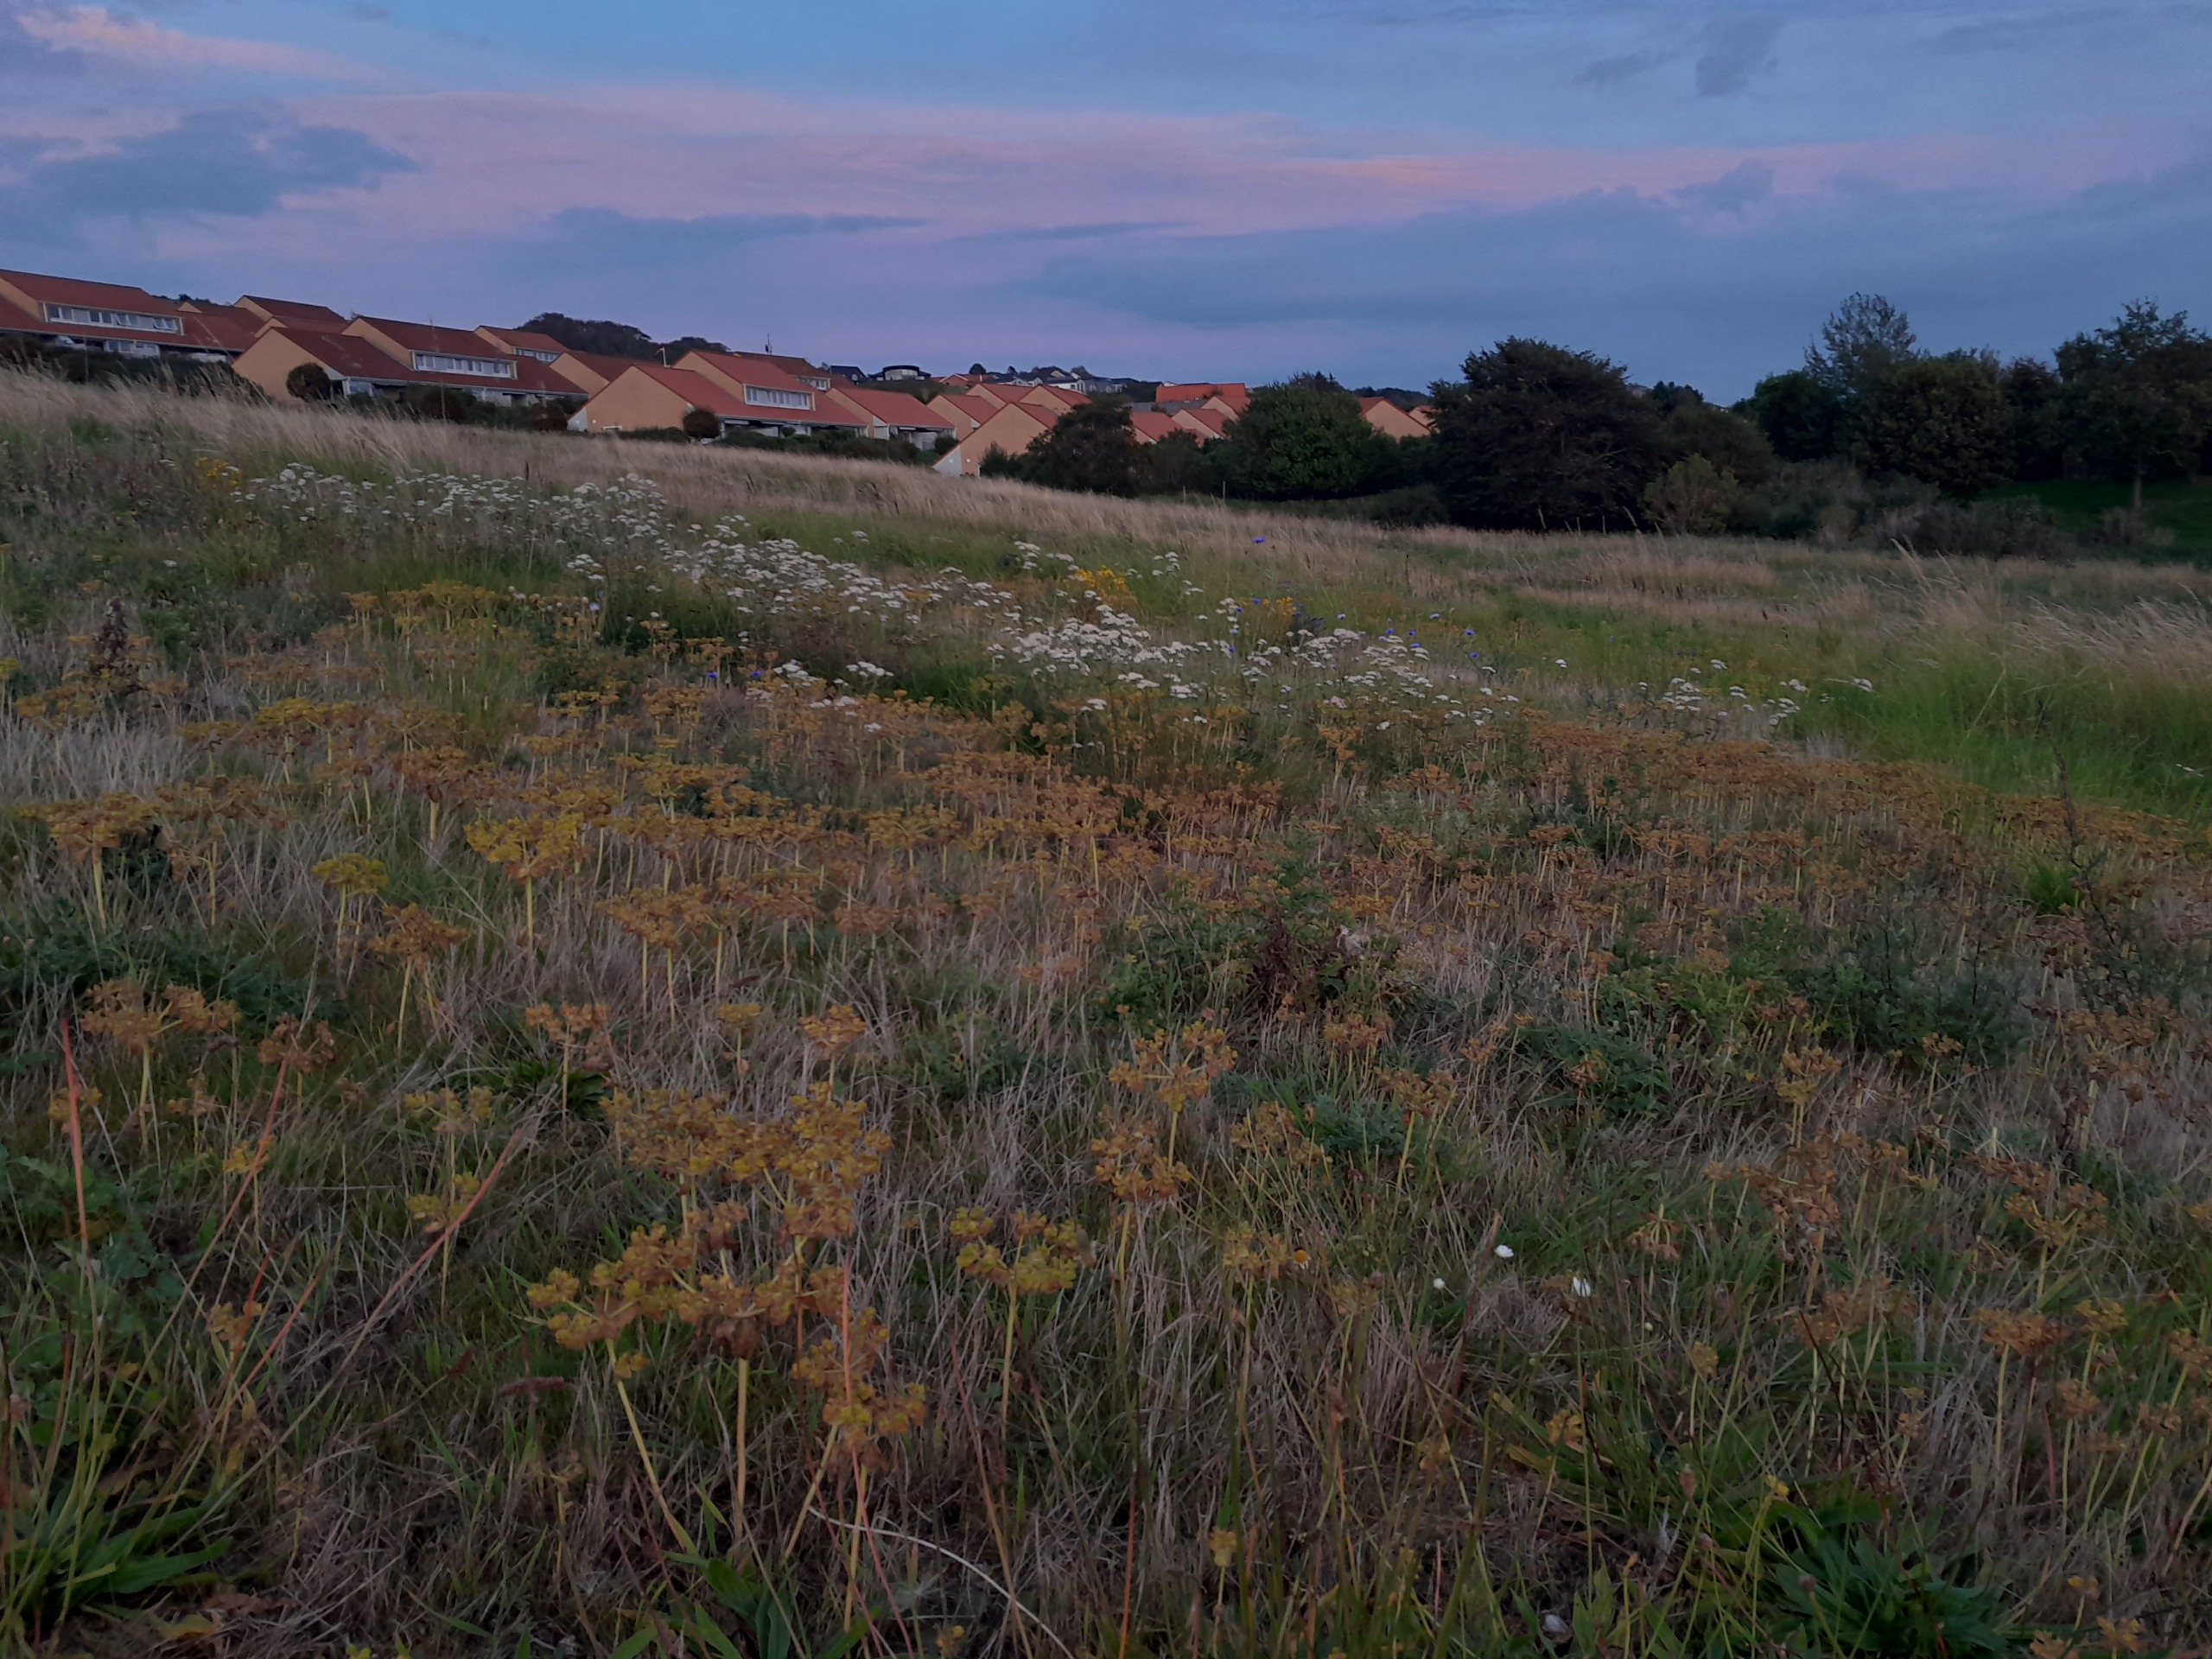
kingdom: Plantae
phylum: Tracheophyta
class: Magnoliopsida
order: Malpighiales
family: Euphorbiaceae
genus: Euphorbia
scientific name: Euphorbia helioscopia
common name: Skærm-vortemælk
